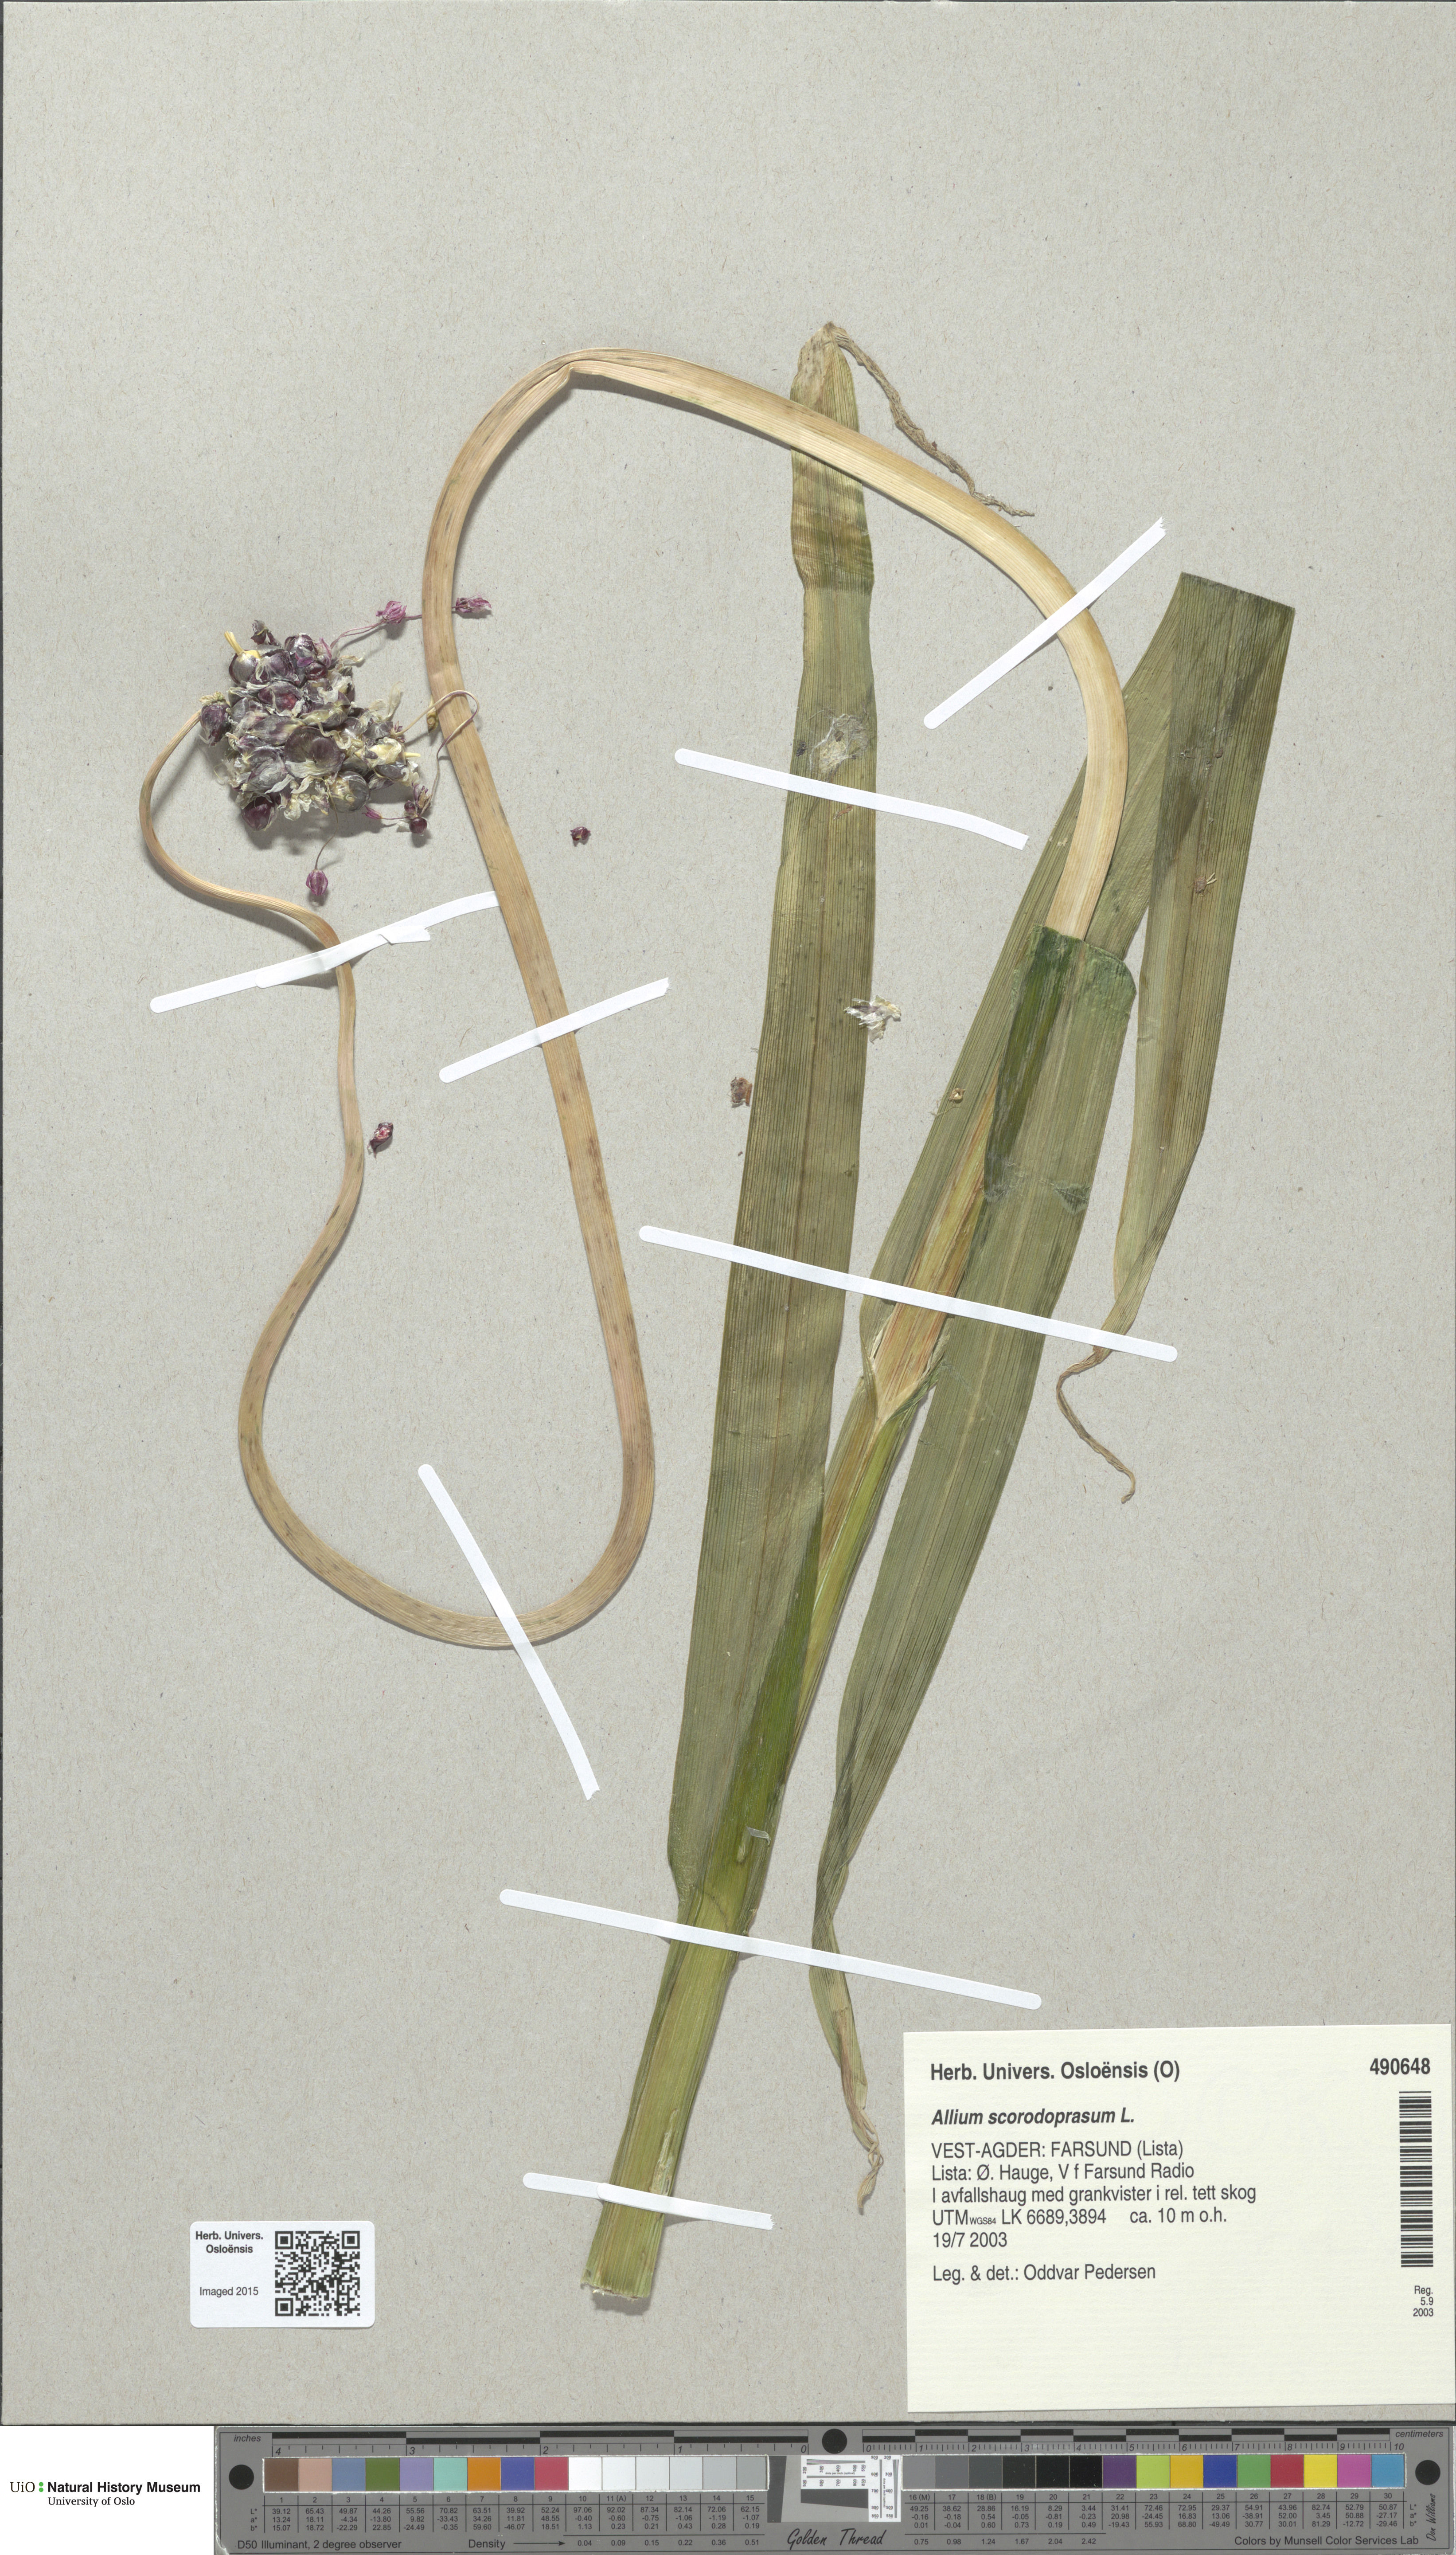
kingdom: Plantae
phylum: Tracheophyta
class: Liliopsida
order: Asparagales
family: Amaryllidaceae
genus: Allium
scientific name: Allium scorodoprasum
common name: Sand leek
